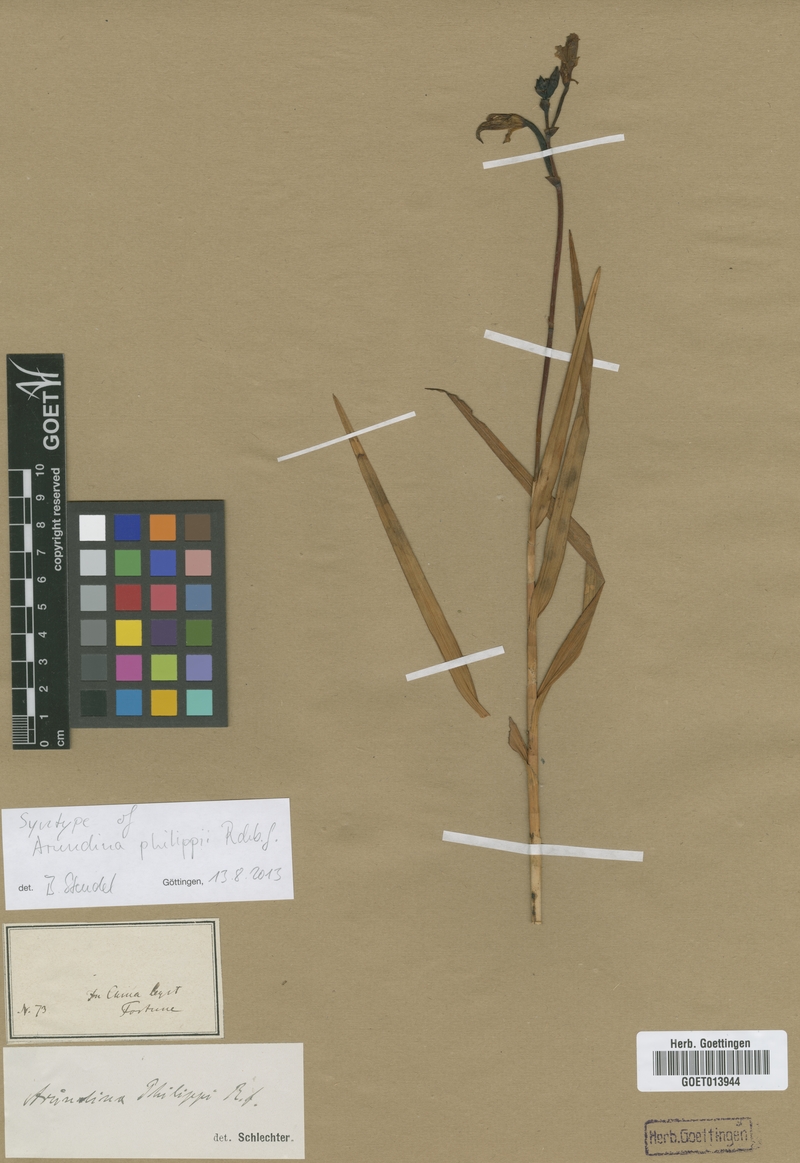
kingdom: Plantae
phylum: Tracheophyta
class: Liliopsida
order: Asparagales
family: Orchidaceae
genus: Arundina
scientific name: Arundina graminifolia
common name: Bamboo orchid
